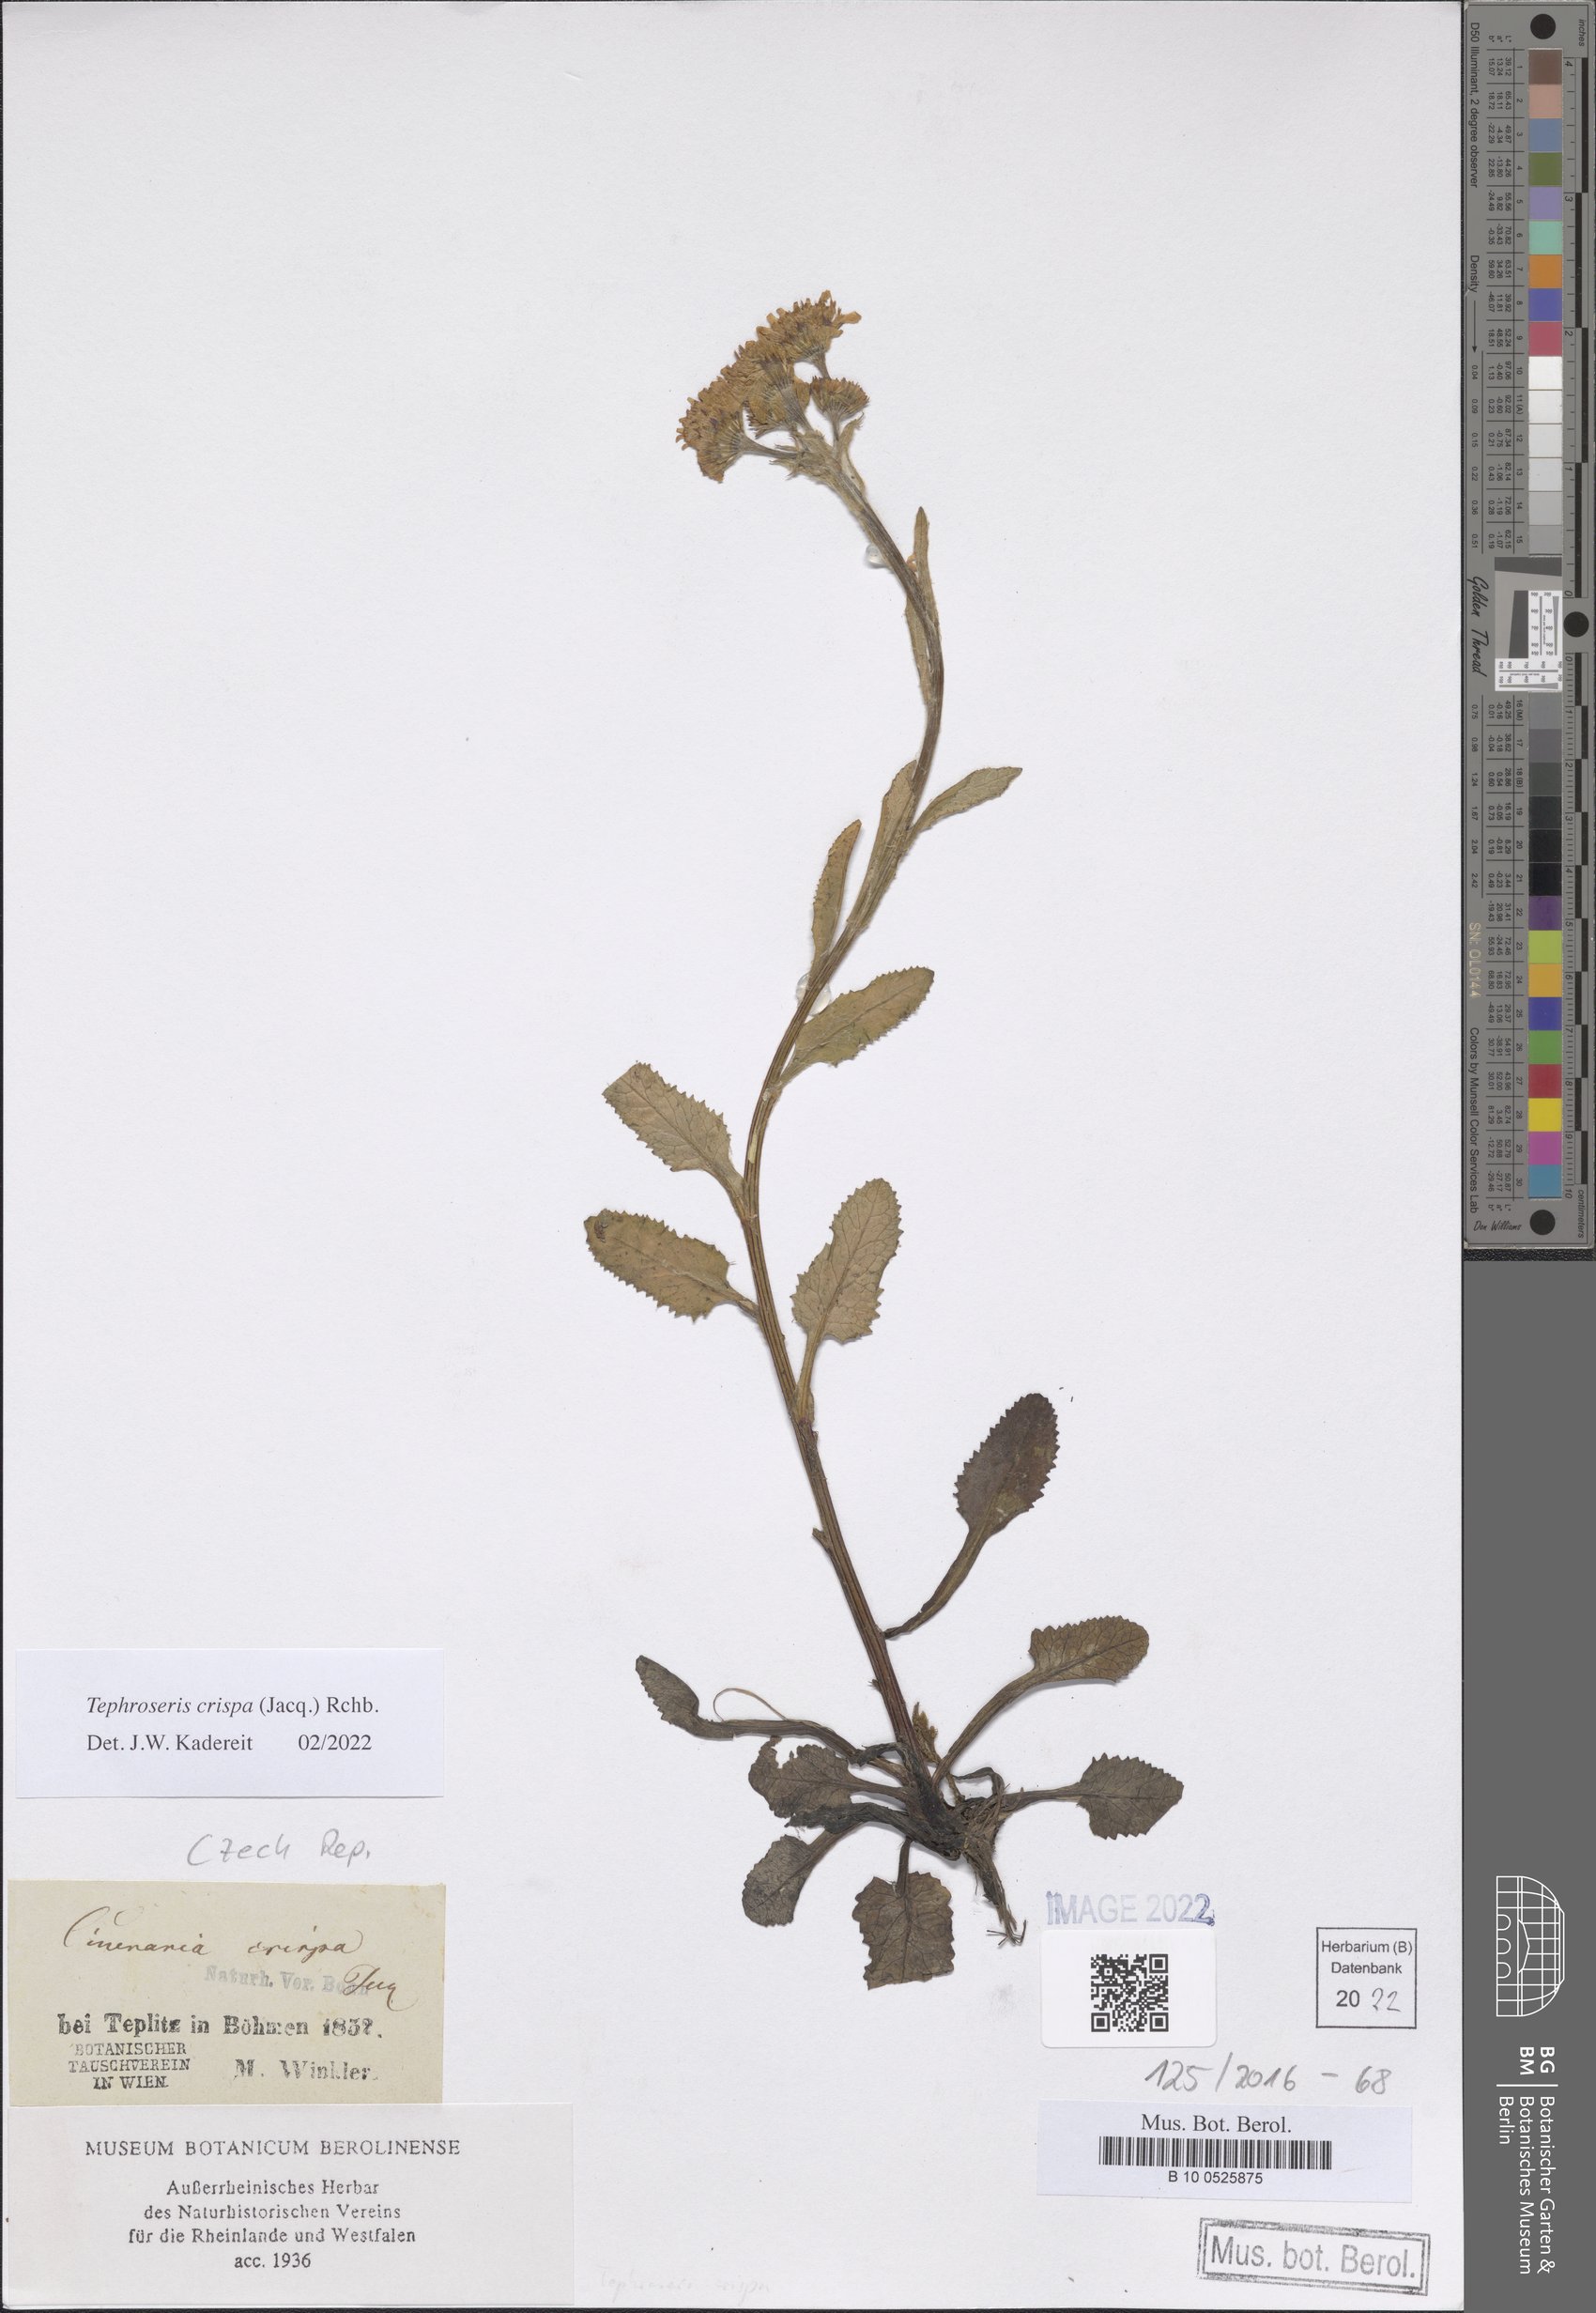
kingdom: Plantae
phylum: Tracheophyta
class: Magnoliopsida
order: Asterales
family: Asteraceae
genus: Tephroseris
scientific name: Tephroseris crispa
